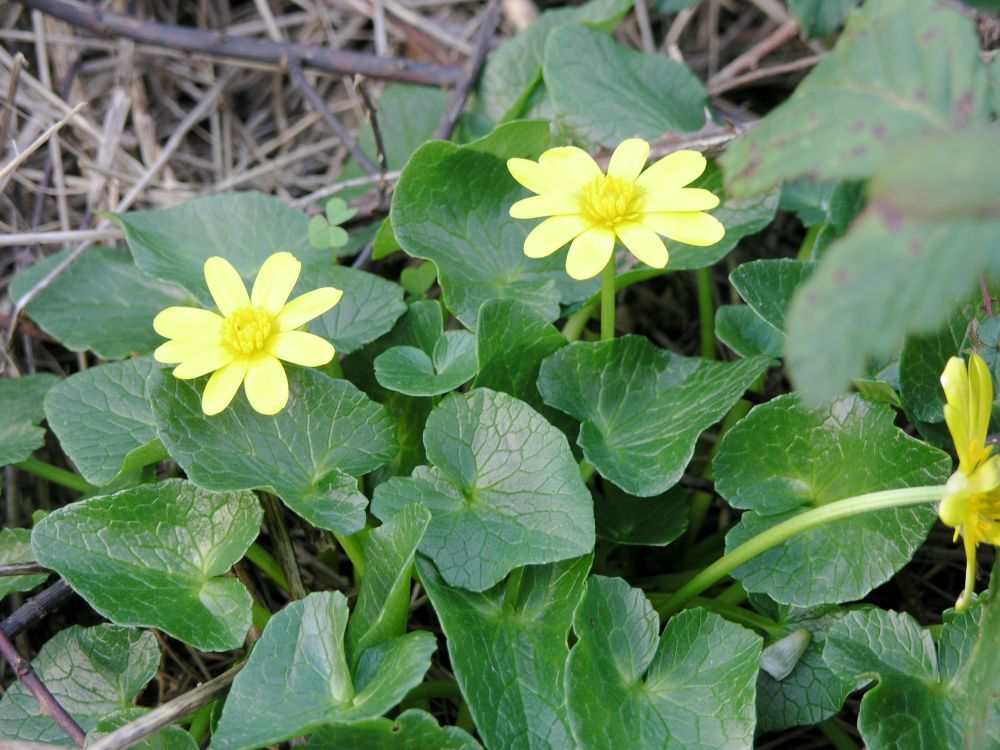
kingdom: Plantae
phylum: Tracheophyta
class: Magnoliopsida
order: Ranunculales
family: Ranunculaceae
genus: Ficaria
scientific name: Ficaria grandiflora
